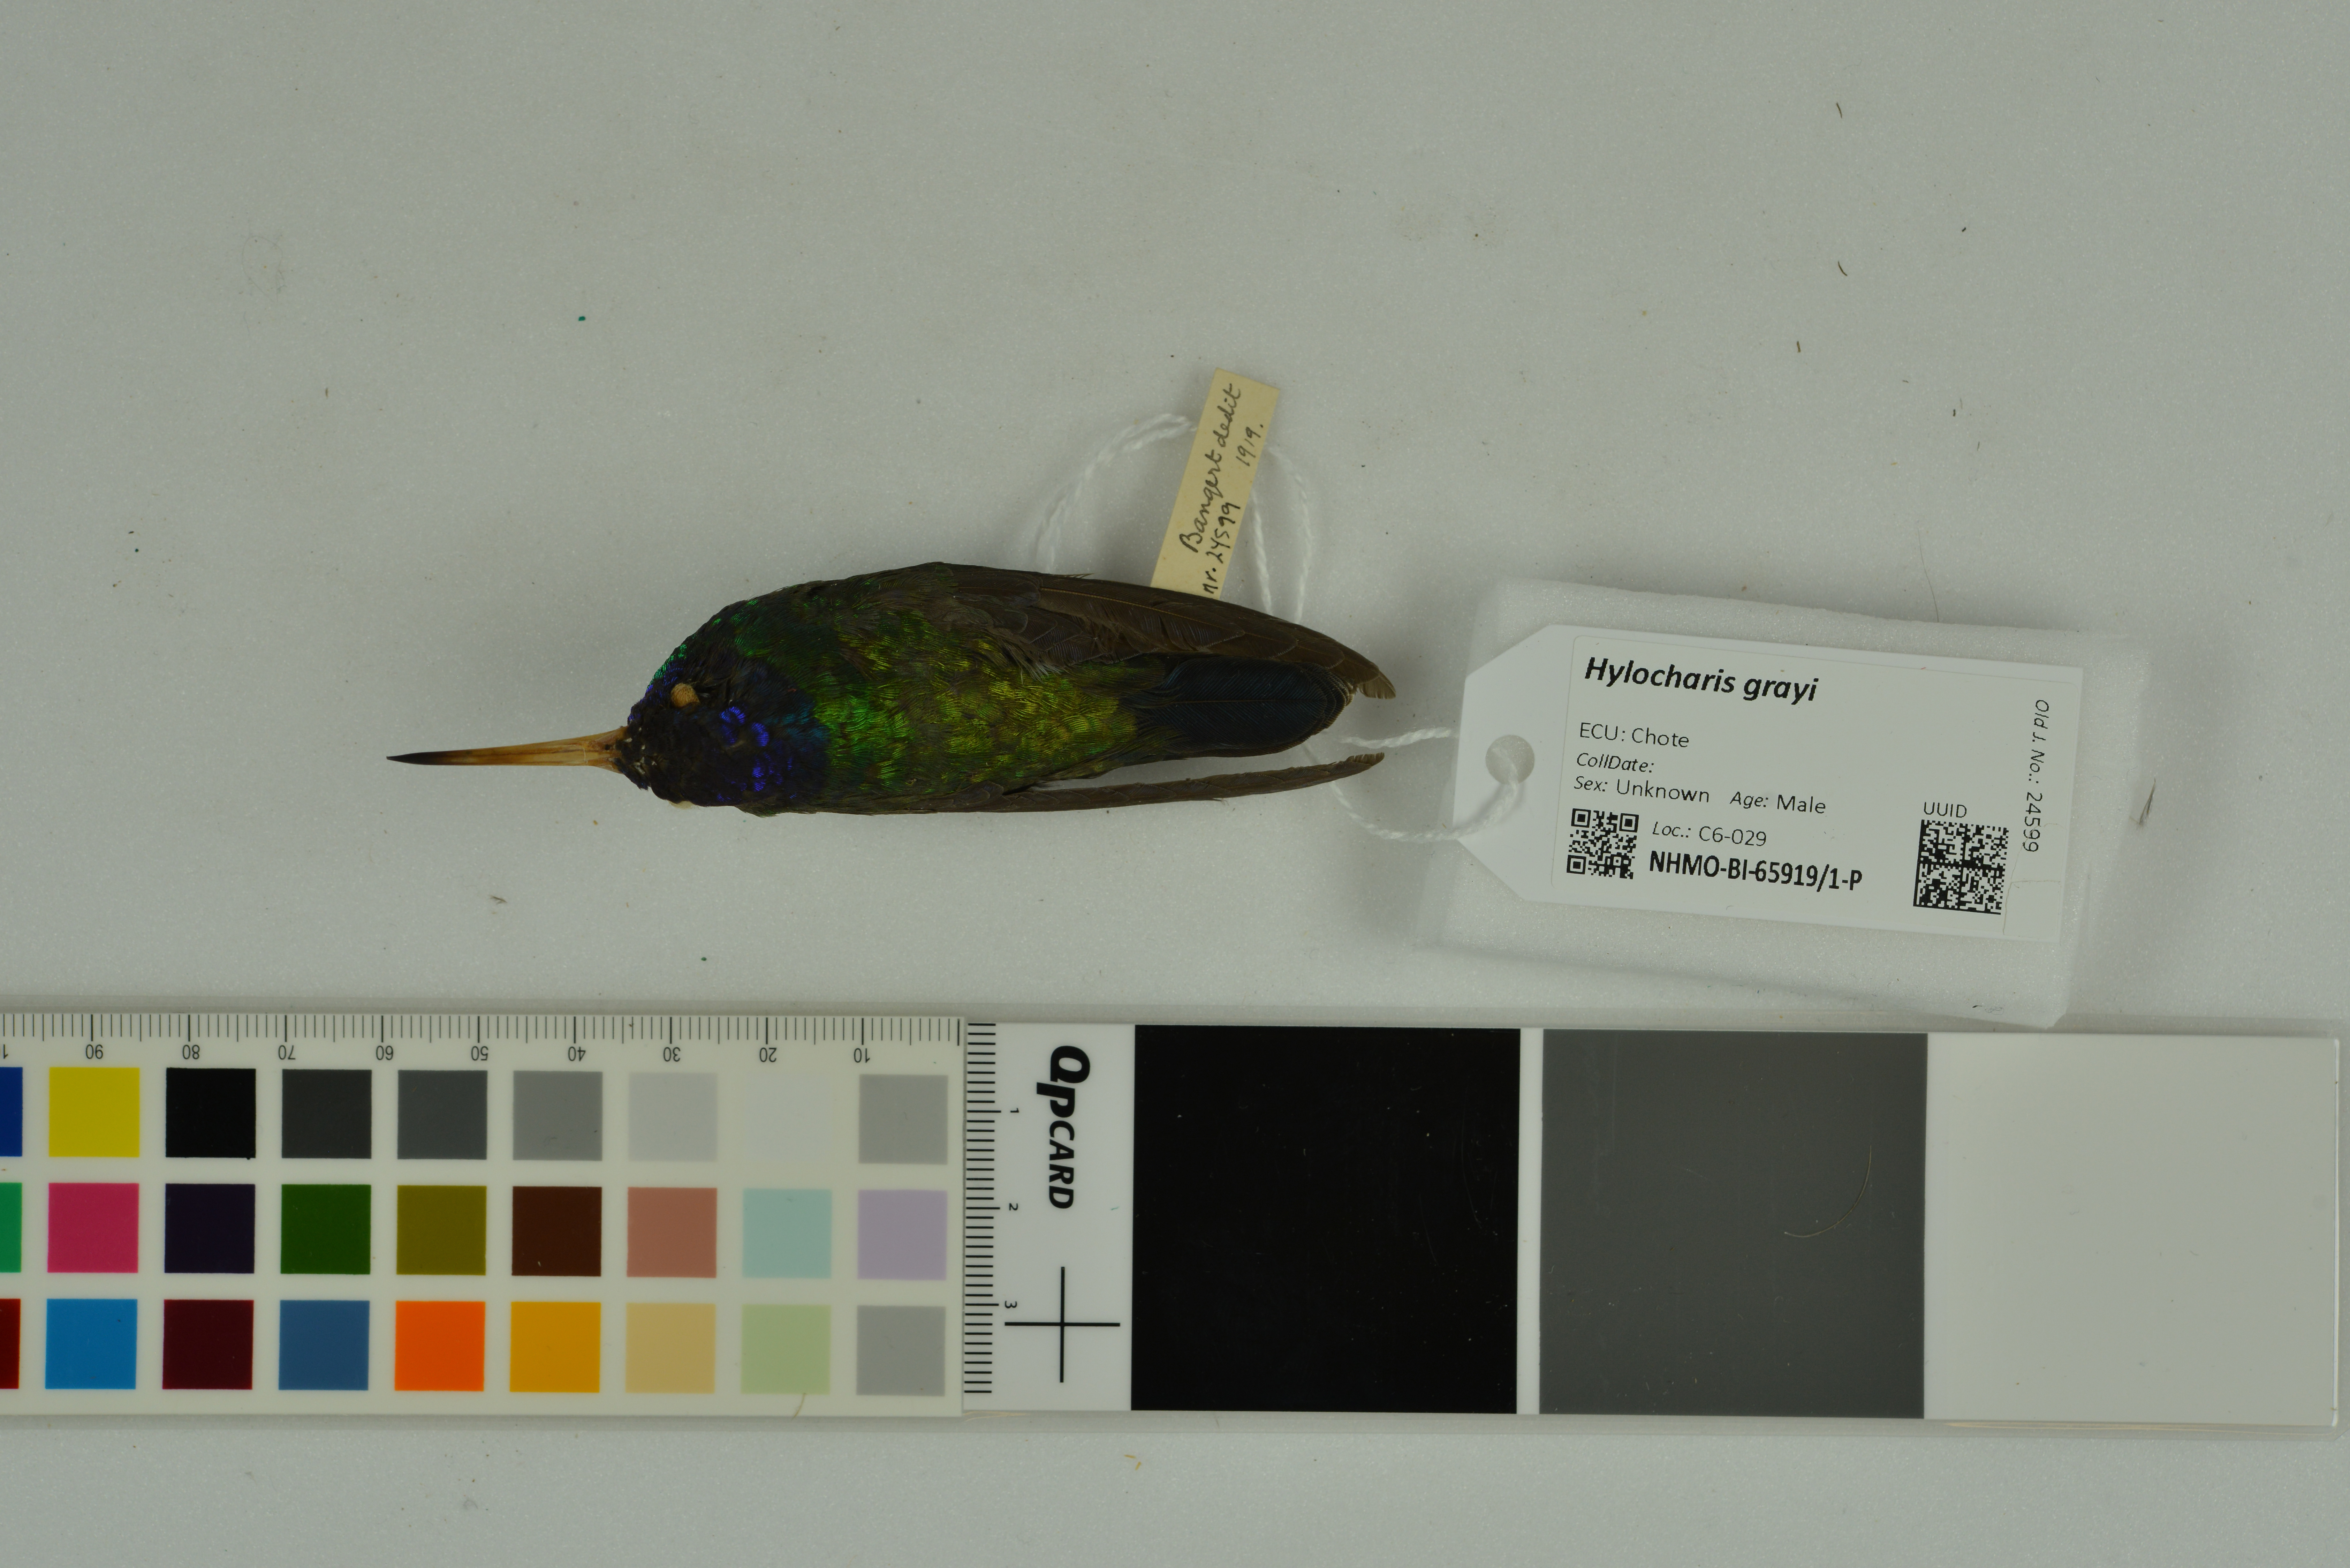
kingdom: Animalia
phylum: Chordata
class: Aves
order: Apodiformes
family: Trochilidae
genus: Chrysuronia
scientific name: Chrysuronia grayi
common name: Blue-headed sapphire
